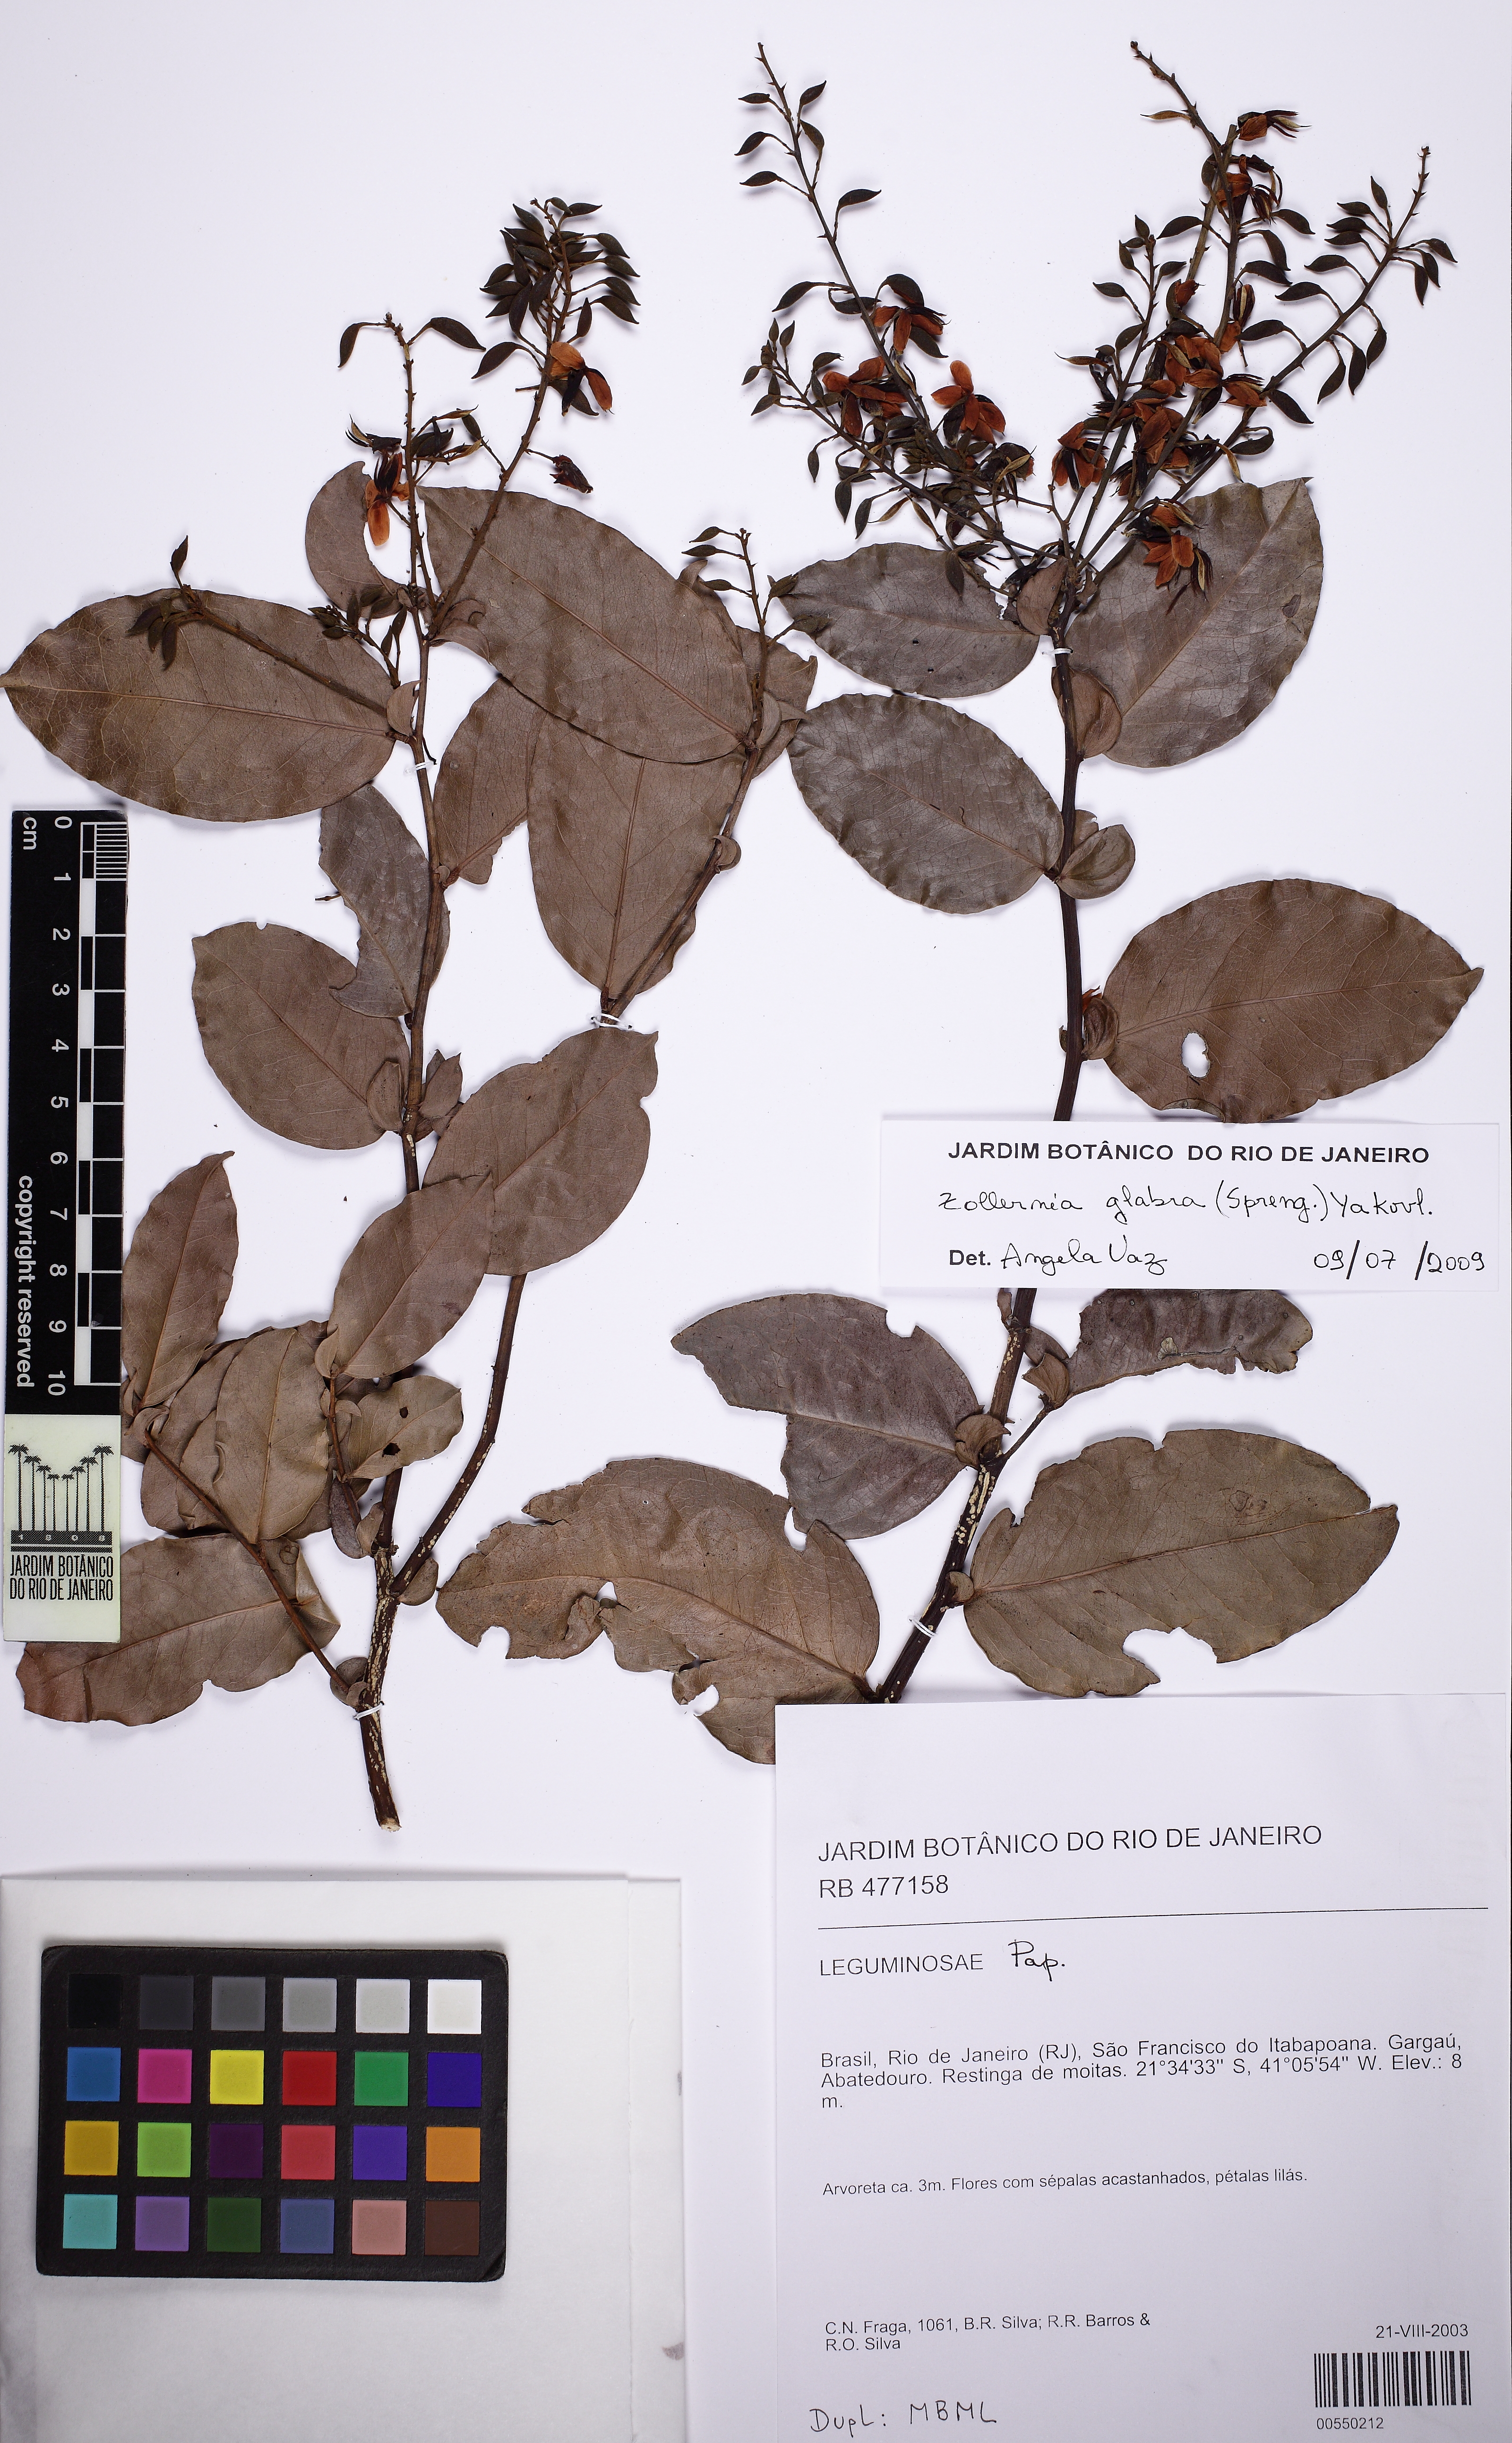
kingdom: Plantae
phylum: Tracheophyta
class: Magnoliopsida
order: Fabales
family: Fabaceae
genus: Zollernia
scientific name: Zollernia glabra
